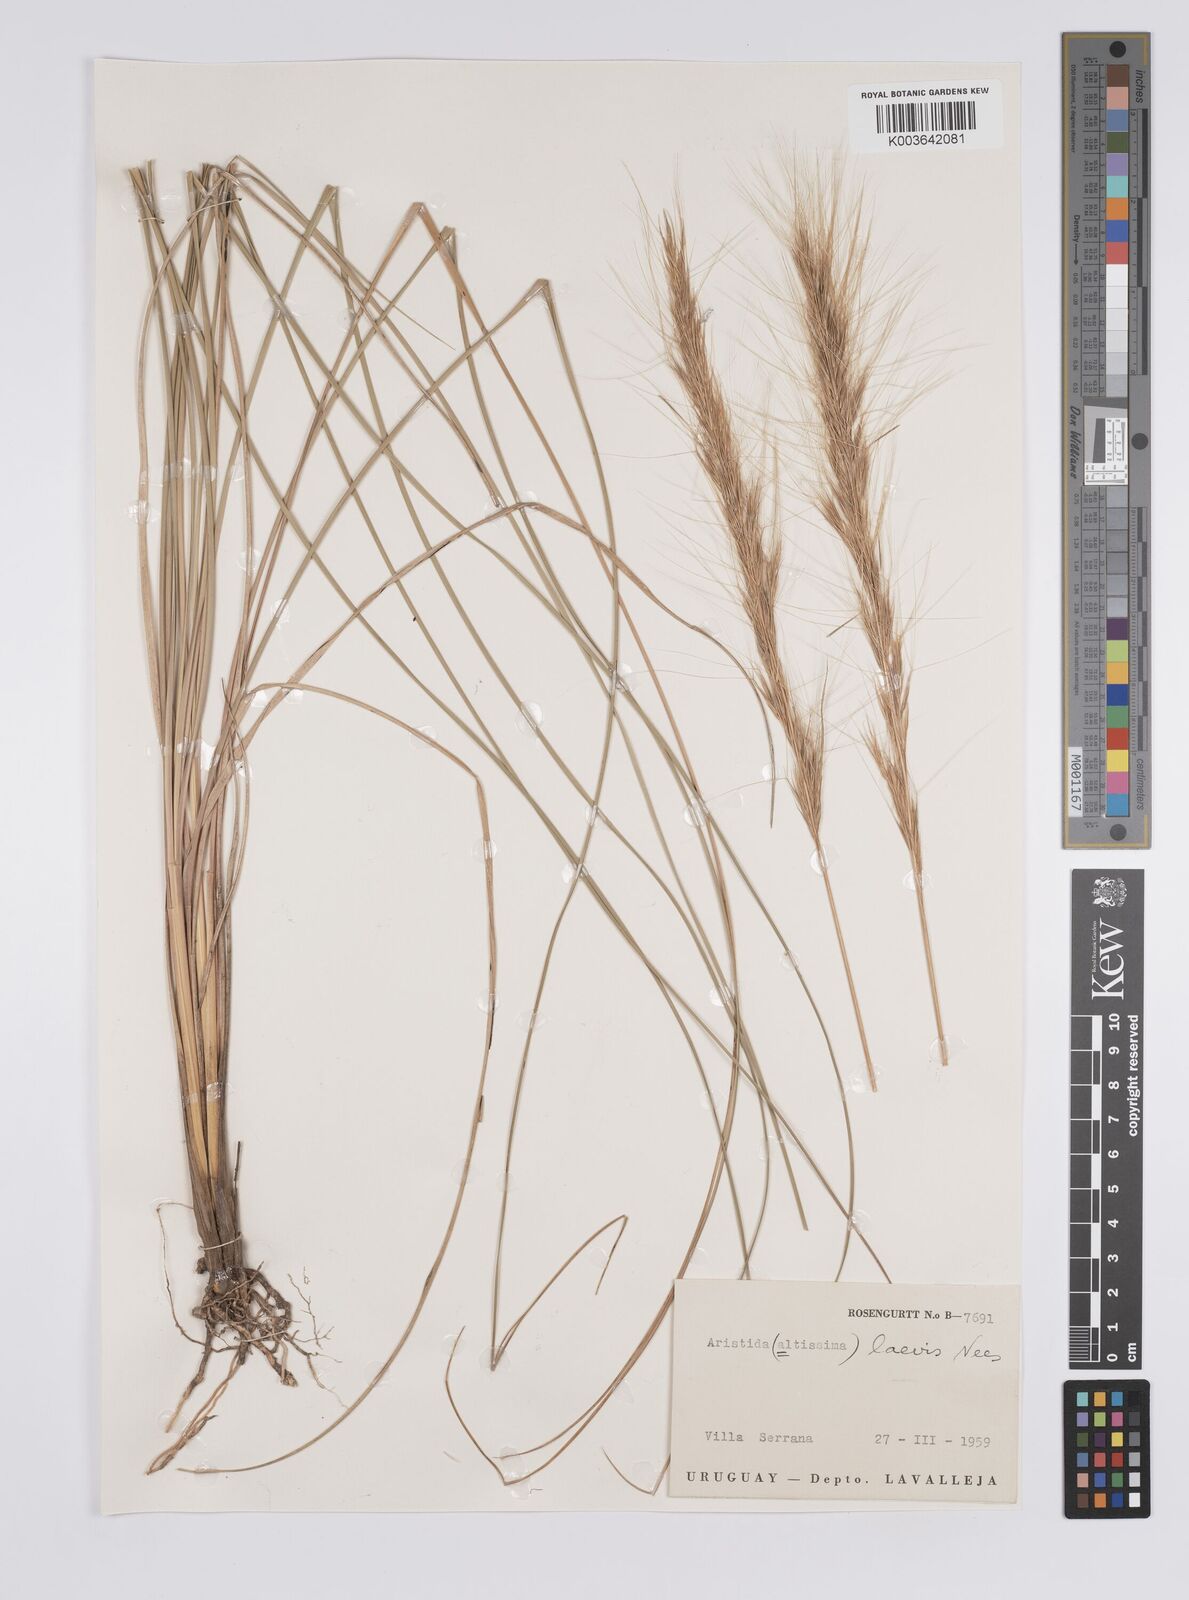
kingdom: Plantae
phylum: Tracheophyta
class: Liliopsida
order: Poales
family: Poaceae
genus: Aristida
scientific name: Aristida laevis
